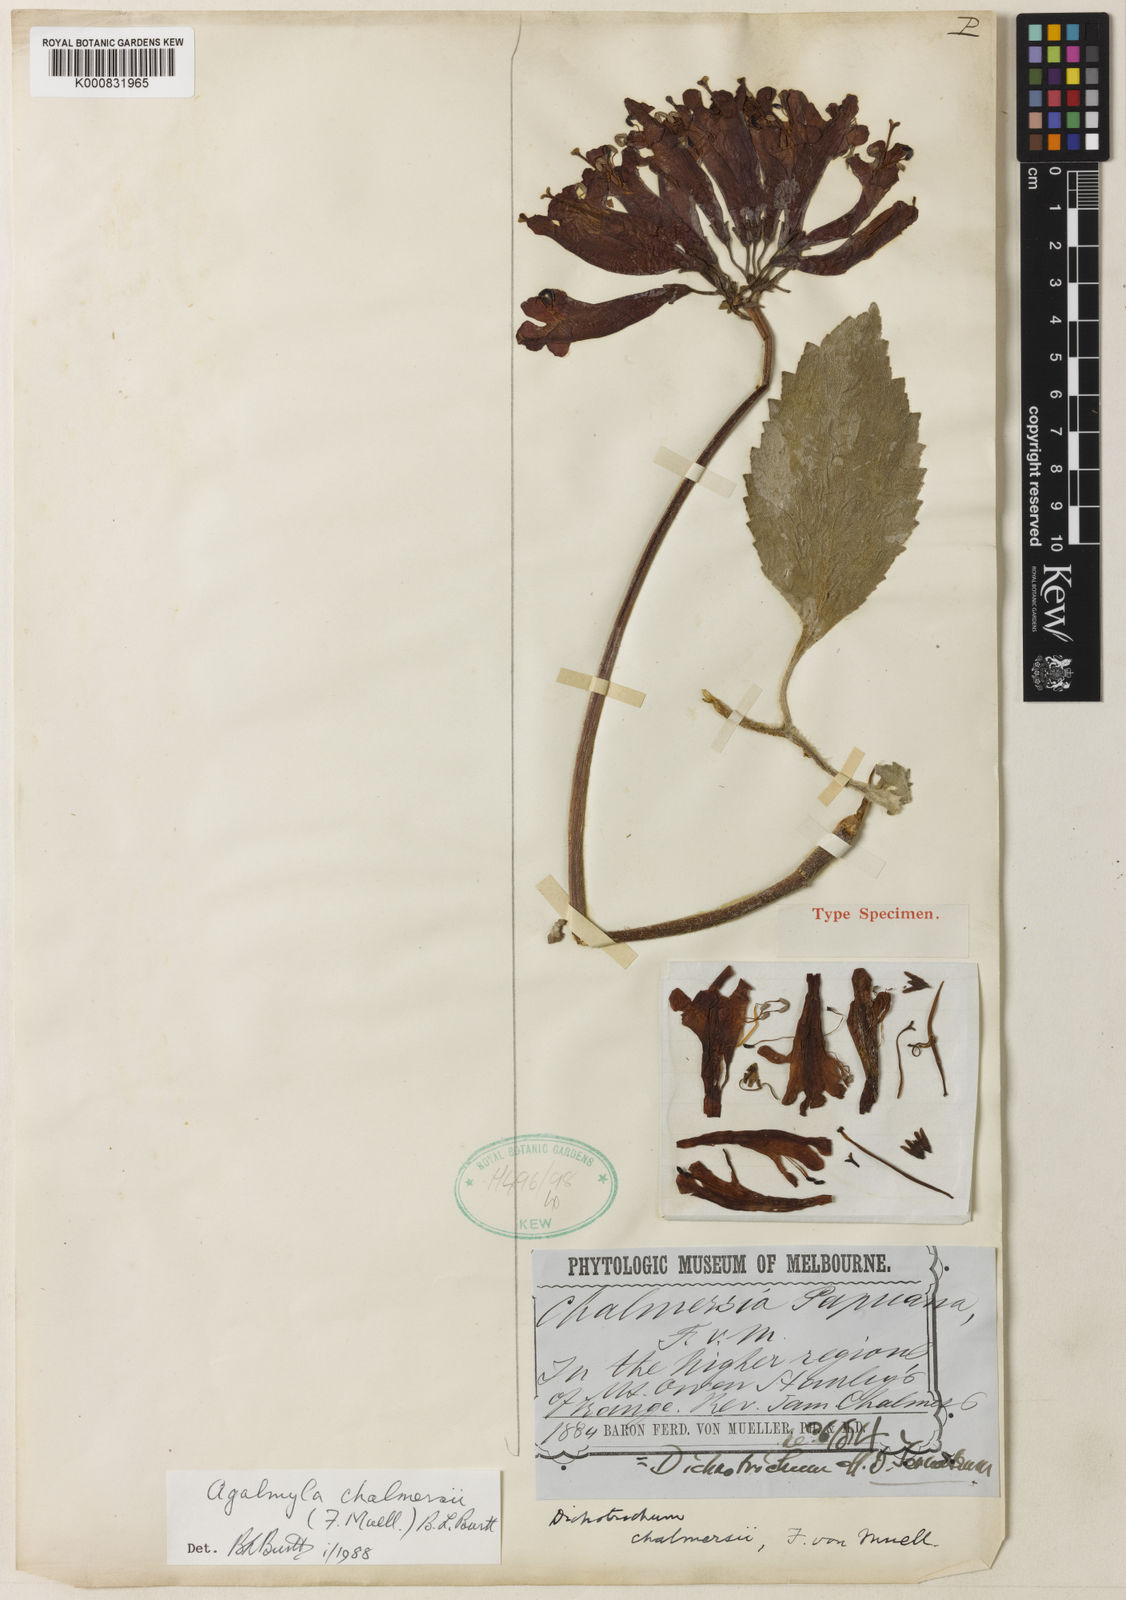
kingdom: Plantae
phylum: Tracheophyta
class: Magnoliopsida
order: Lamiales
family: Gesneriaceae
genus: Agalmyla
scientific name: Agalmyla chalmersii
